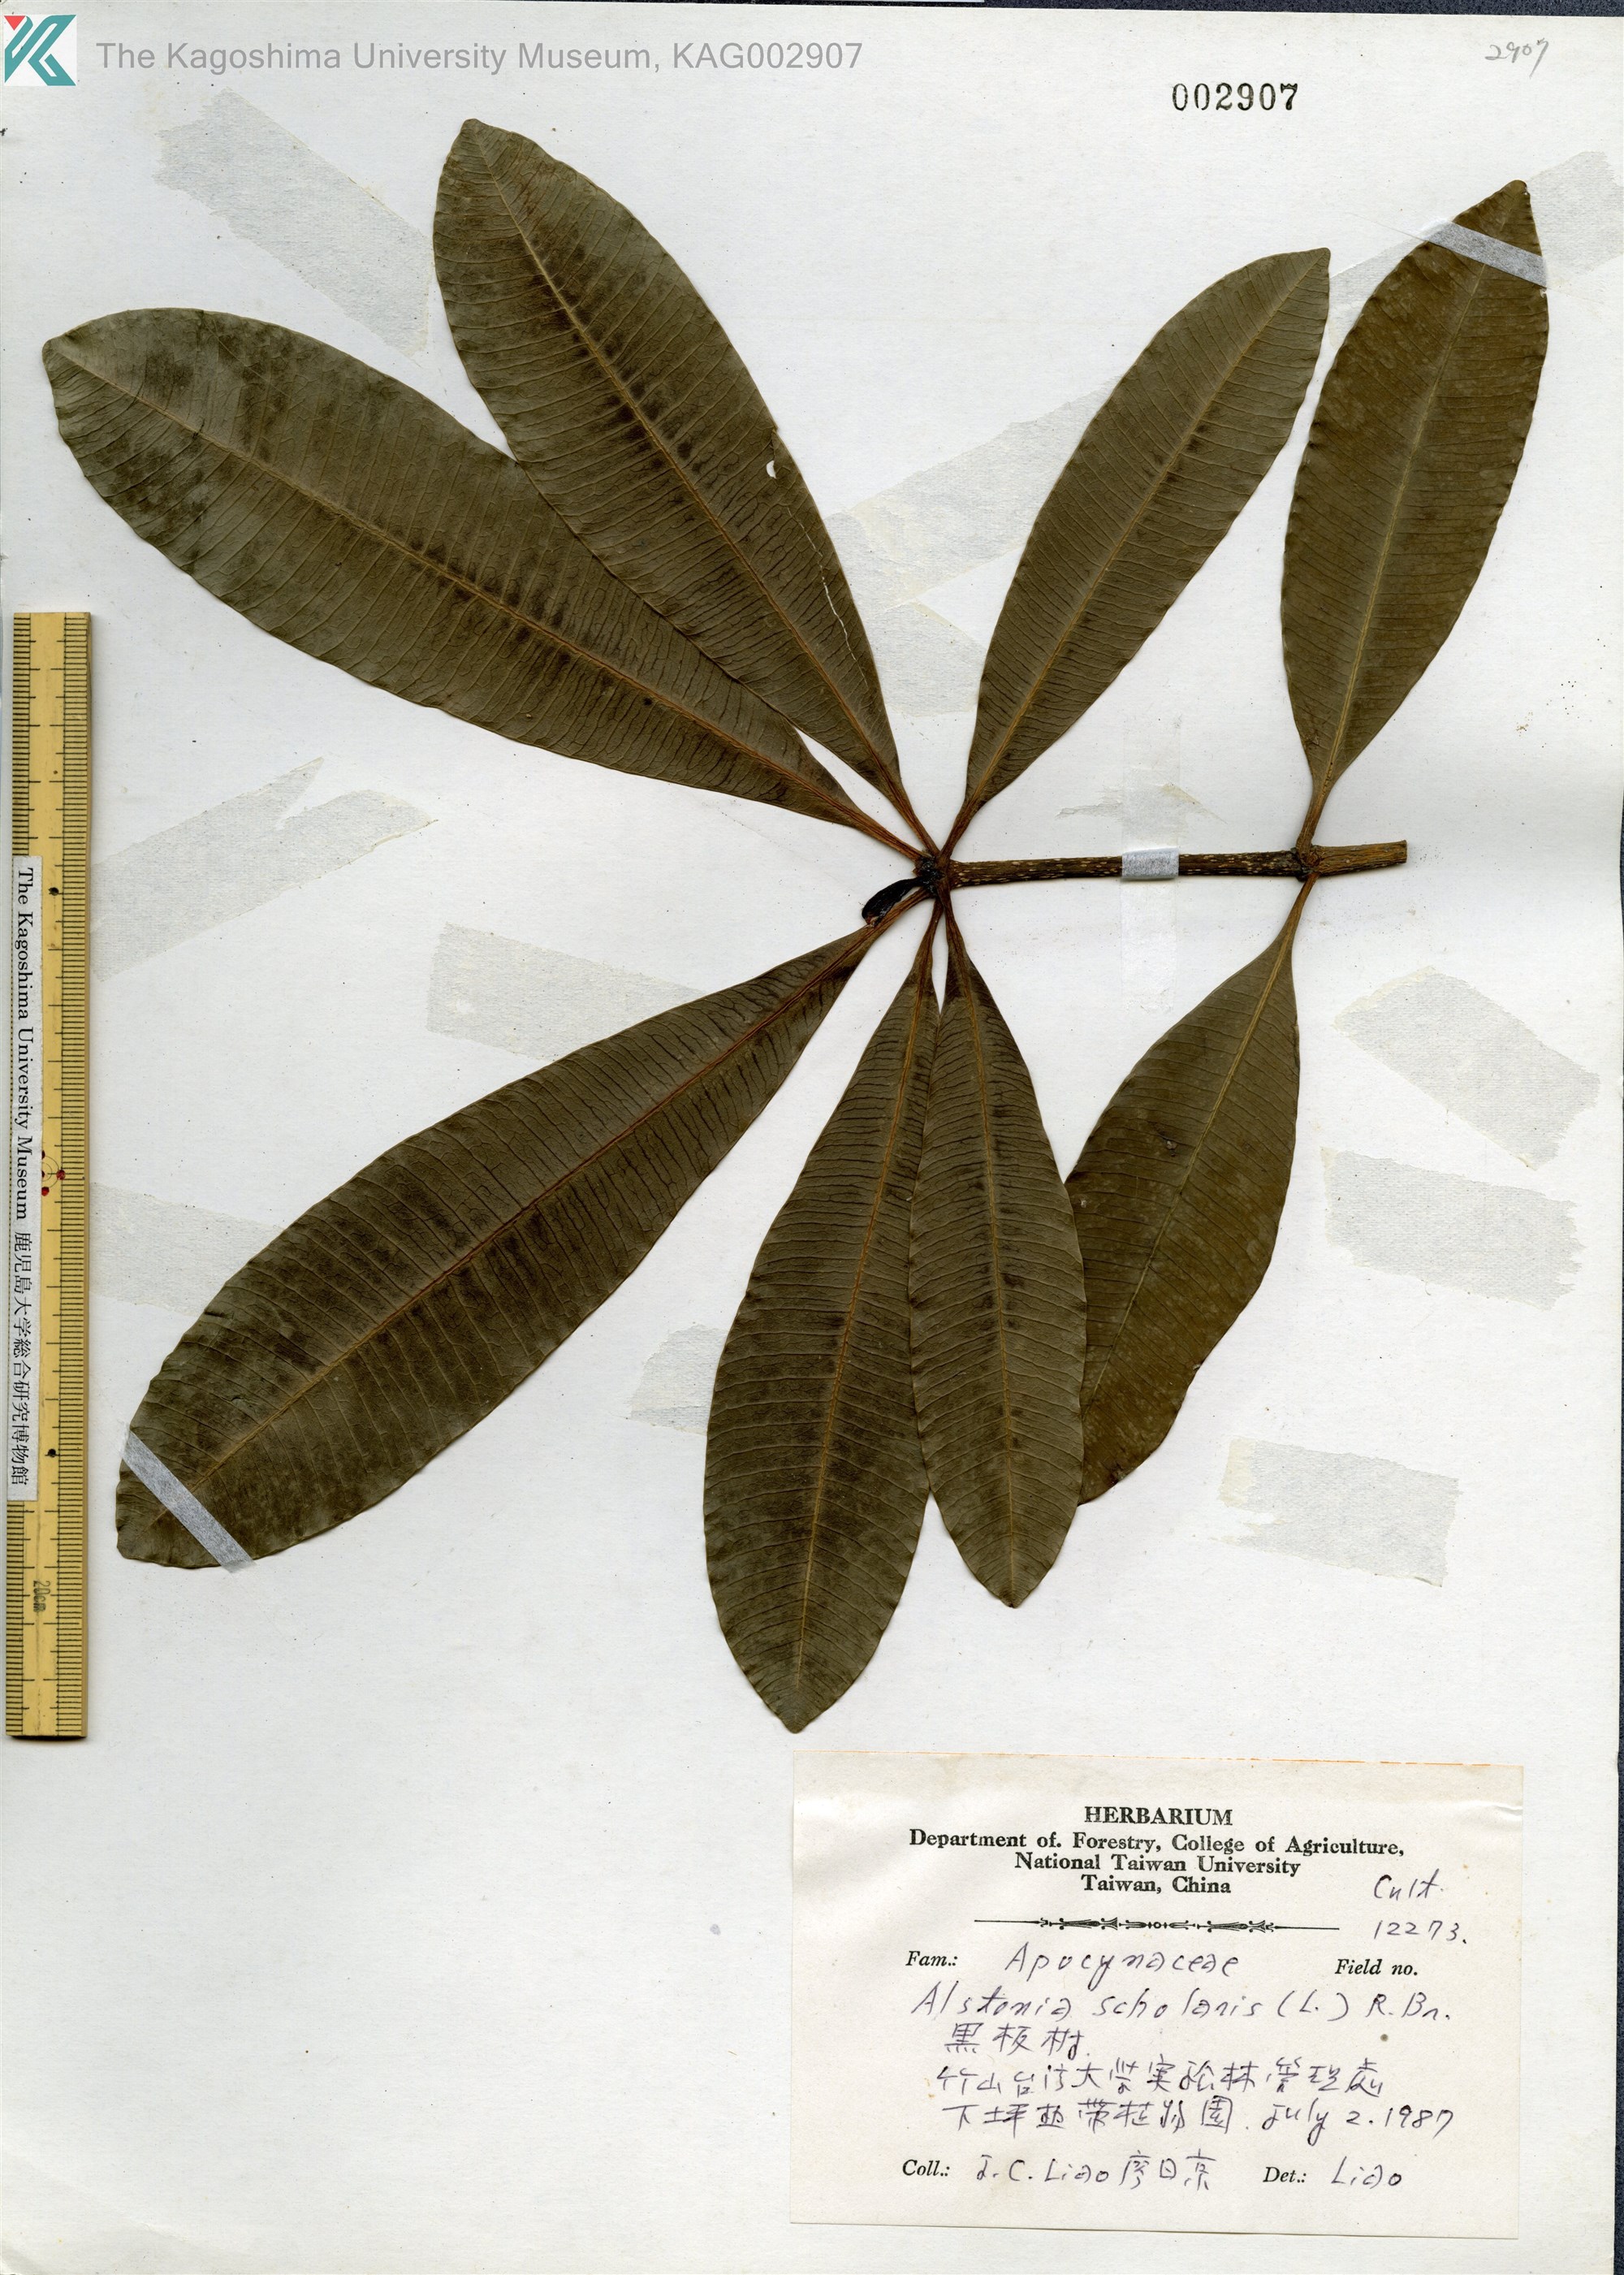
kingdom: Plantae
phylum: Tracheophyta
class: Magnoliopsida
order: Gentianales
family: Apocynaceae
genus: Alstonia
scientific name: Alstonia scholaris
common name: White cheesewood
